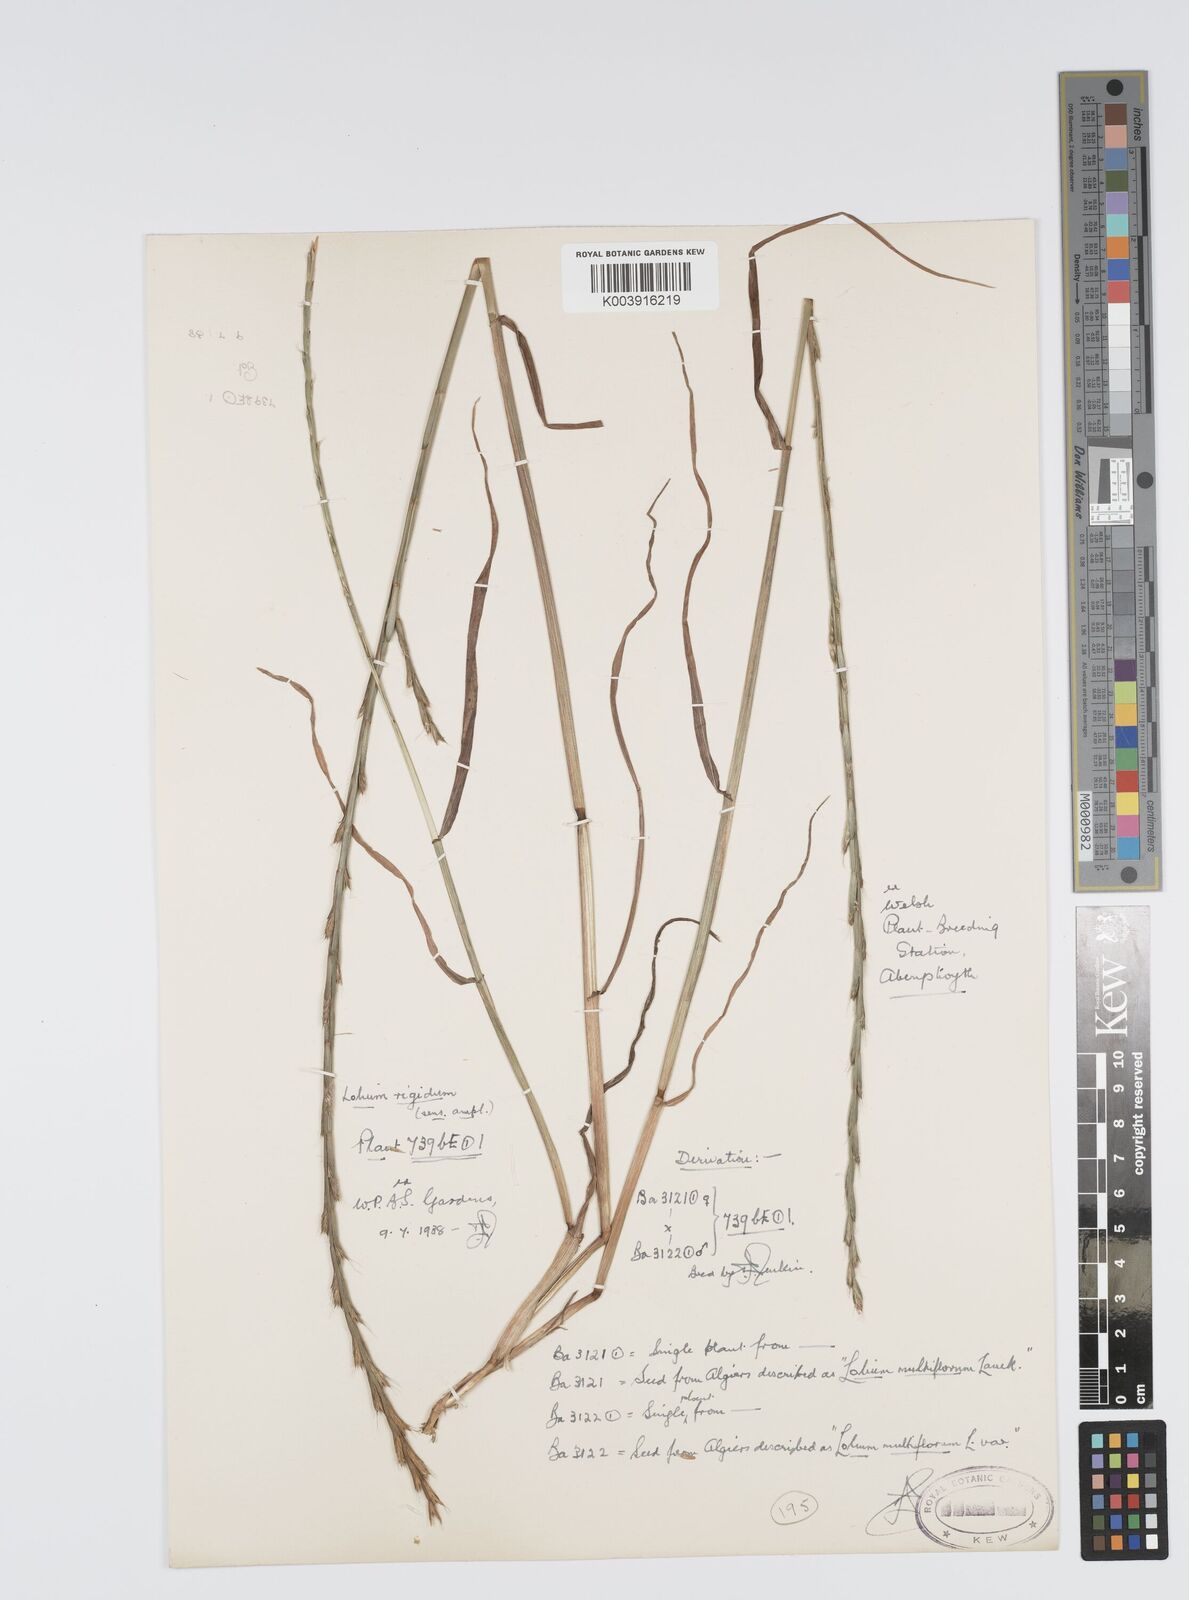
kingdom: Plantae
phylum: Tracheophyta
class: Liliopsida
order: Poales
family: Poaceae
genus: Lolium
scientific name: Lolium rigidum
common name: Wimmera ryegrass
